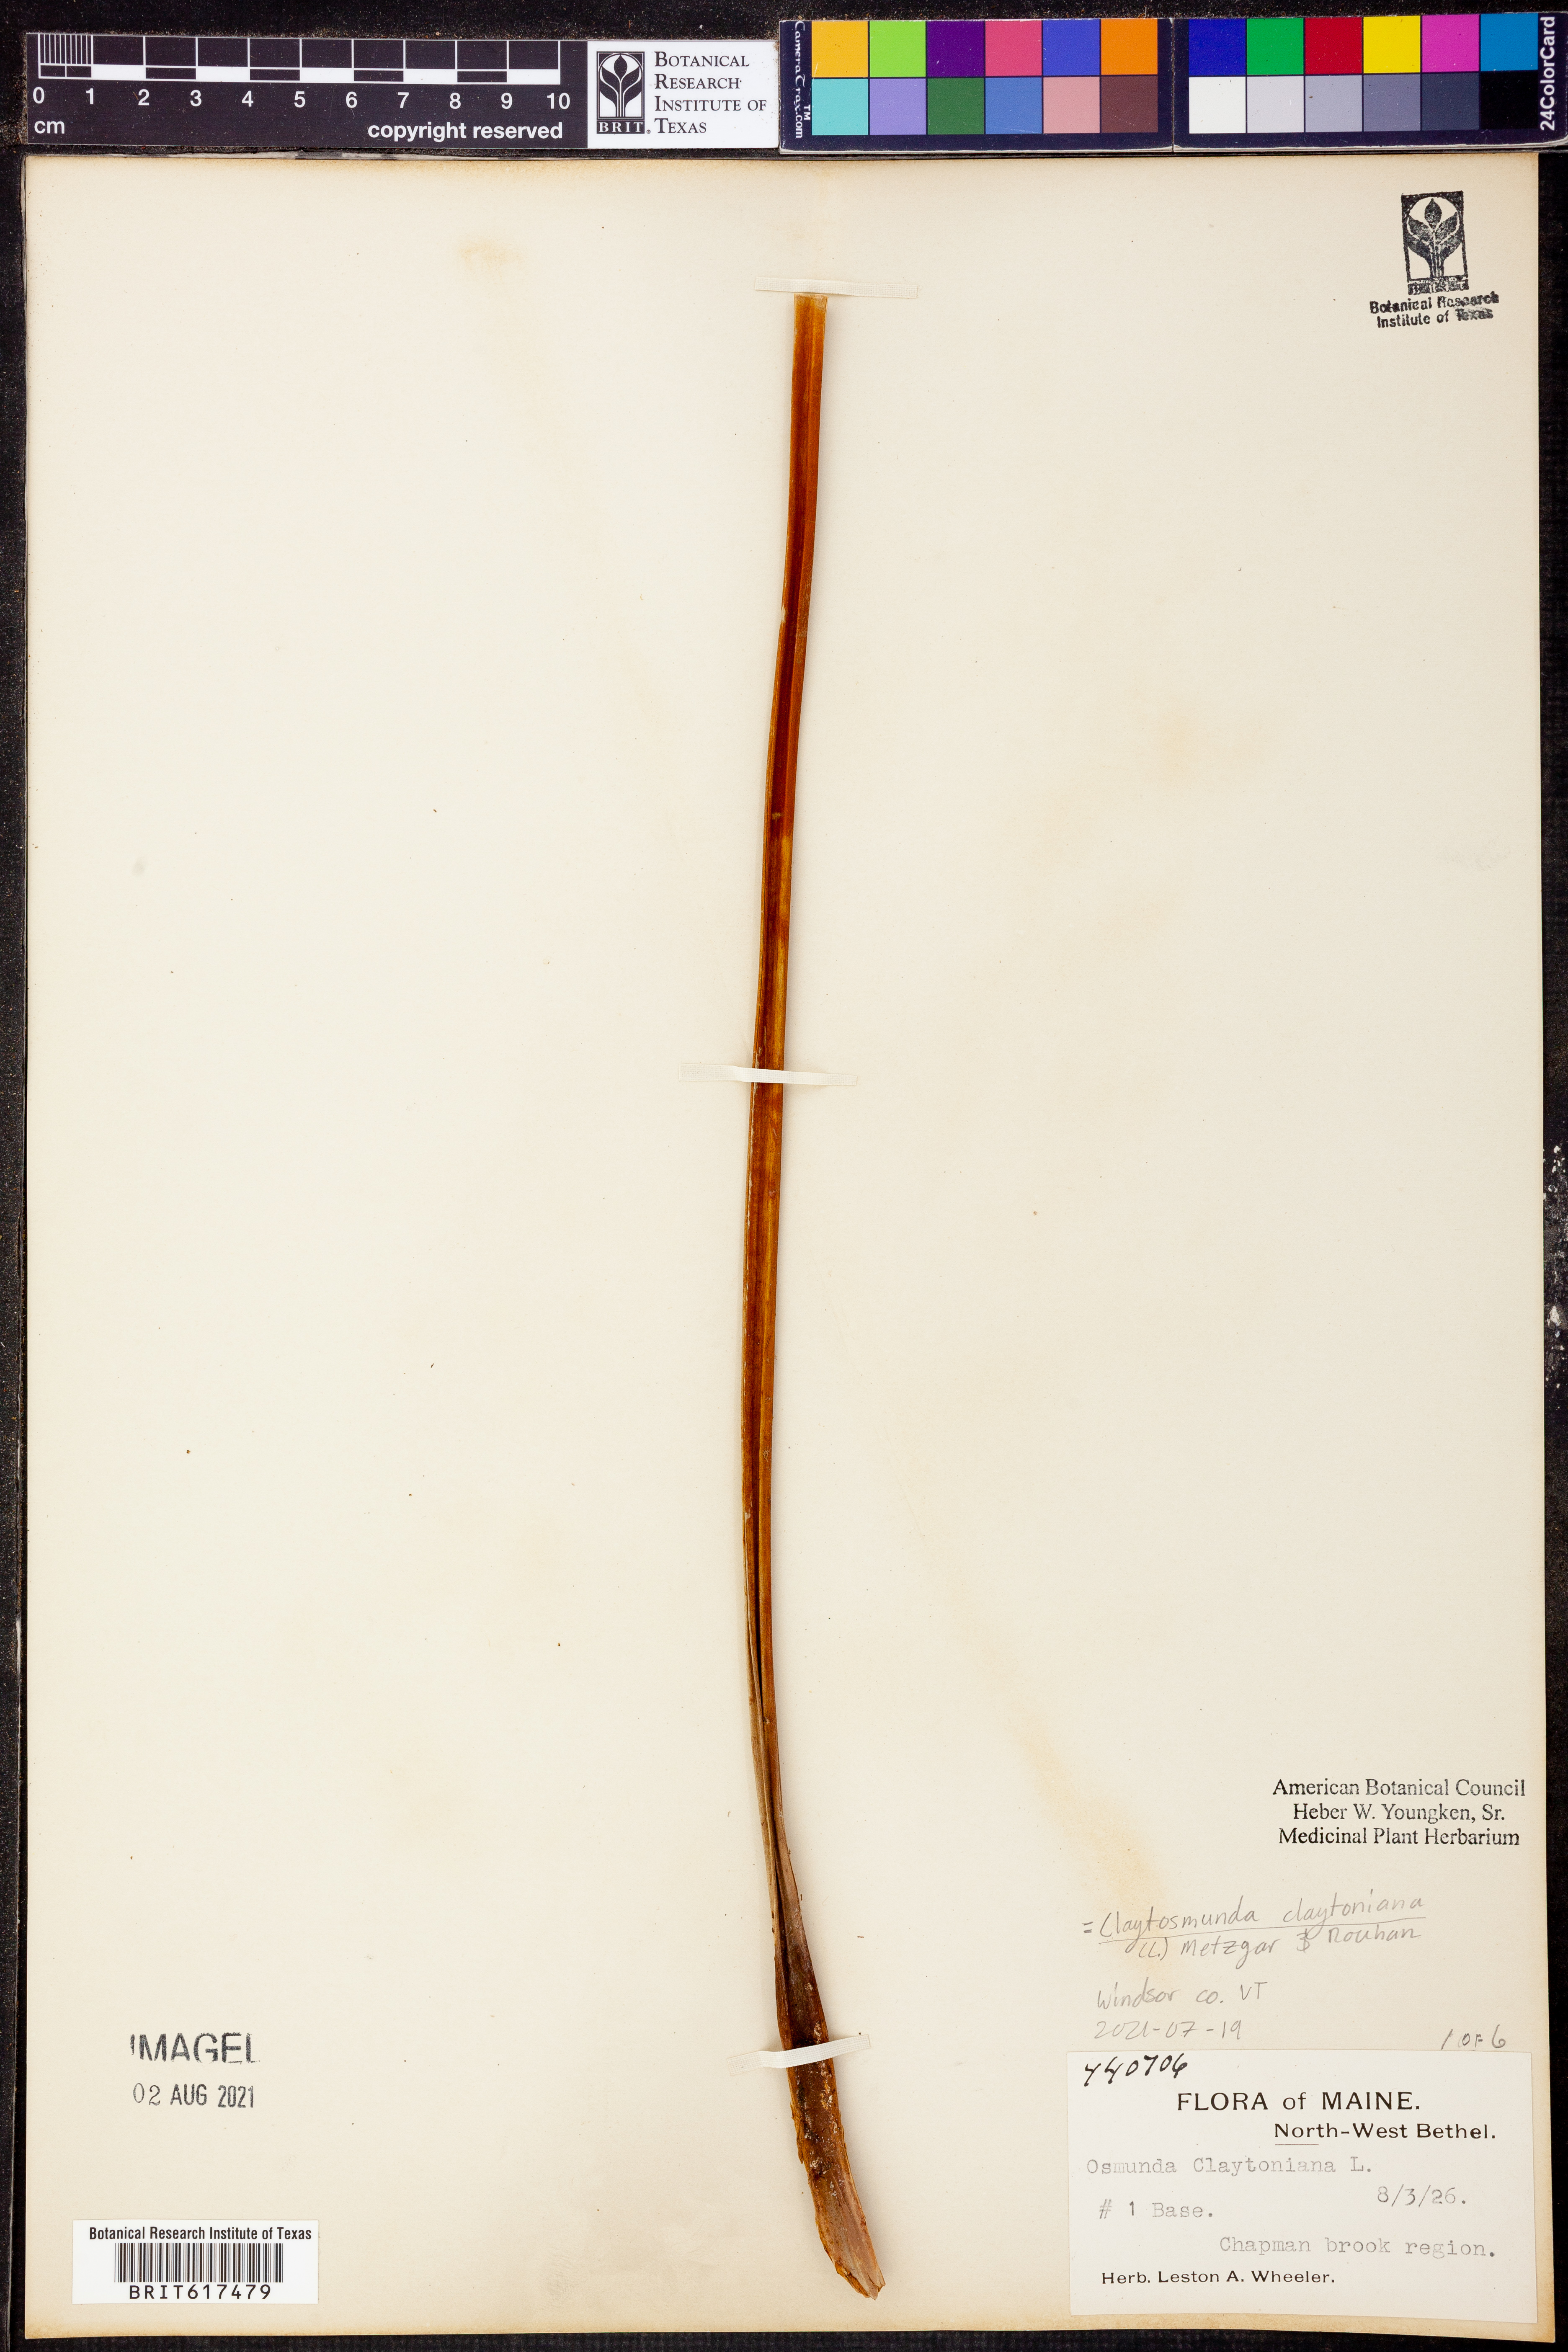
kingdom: Plantae
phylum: Tracheophyta
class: Polypodiopsida
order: Osmundales
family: Osmundaceae
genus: Claytosmunda
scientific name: Claytosmunda claytoniana
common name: Clayton's fern
